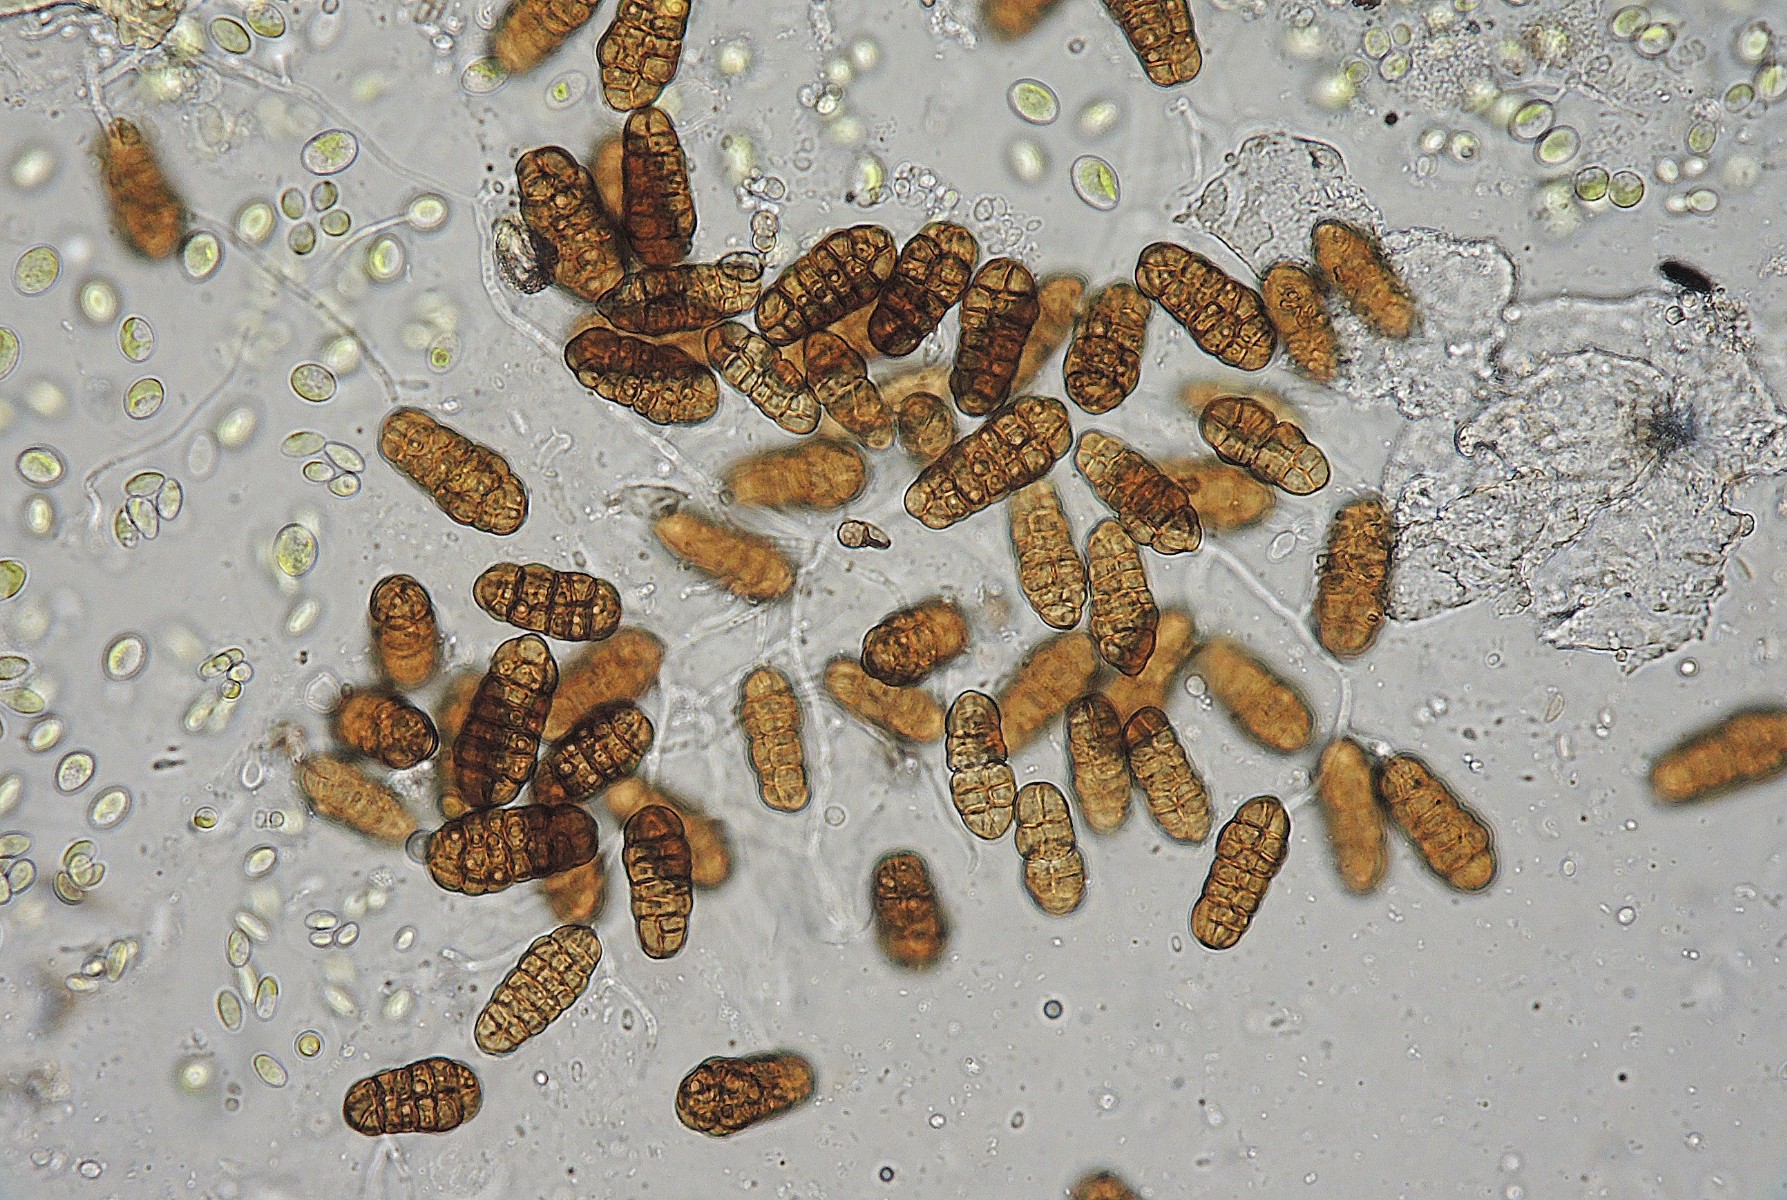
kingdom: Fungi
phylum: Ascomycota
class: Dothideomycetes
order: Pleosporales
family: Pleosporaceae
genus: Pleospora
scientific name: Pleospora
